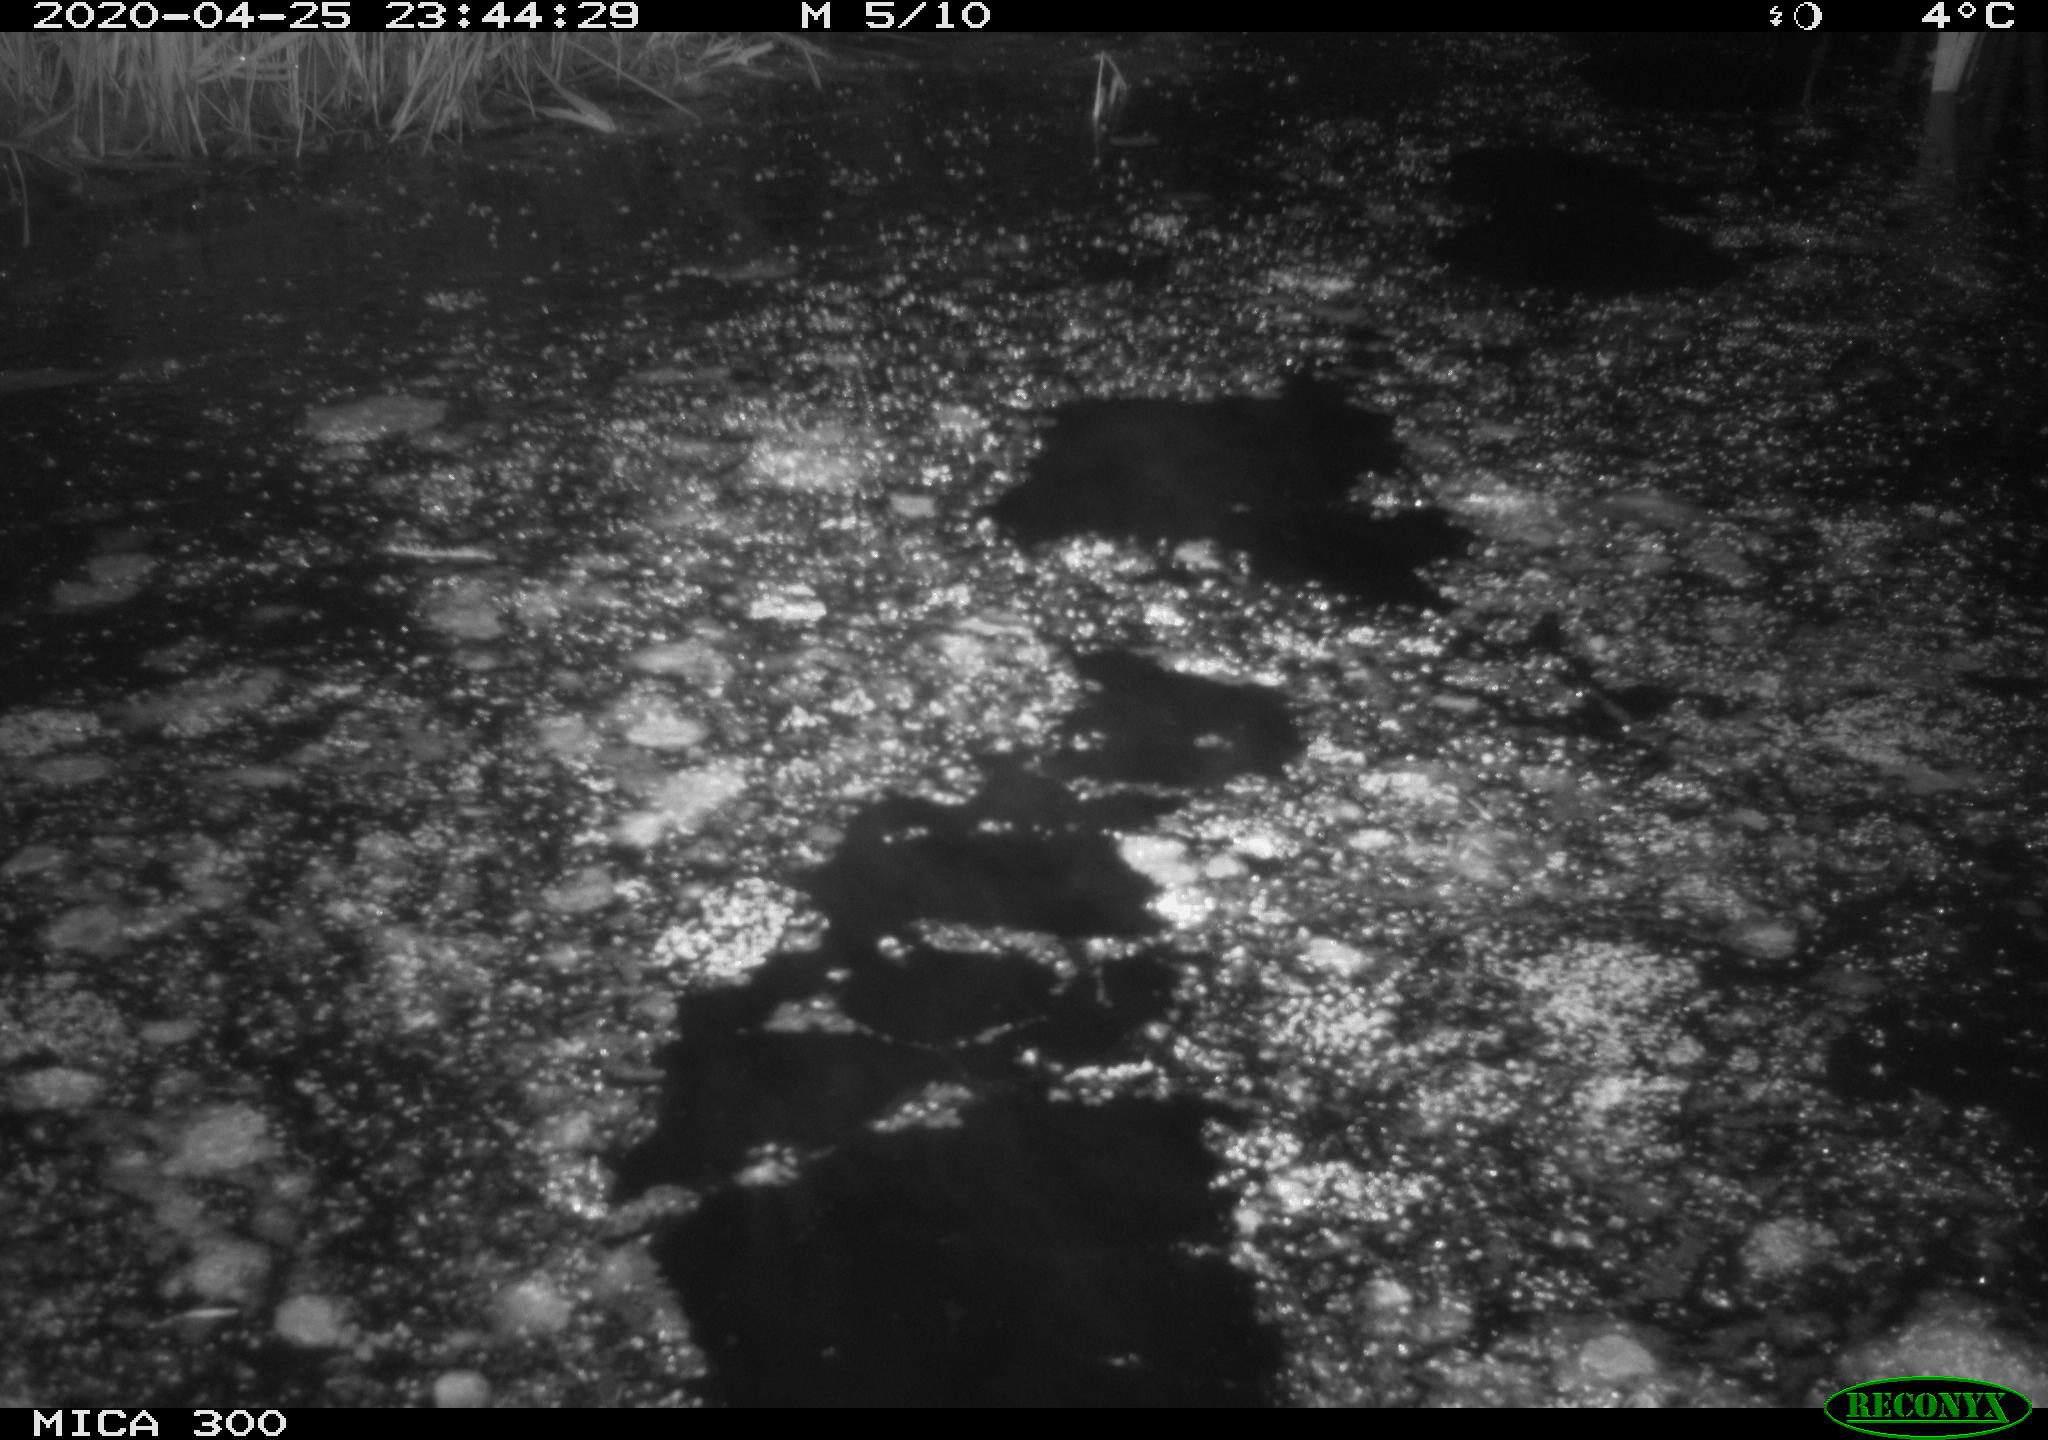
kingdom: Animalia
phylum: Chordata
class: Mammalia
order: Rodentia
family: Castoridae
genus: Castor
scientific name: Castor fiber
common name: Eurasian beaver
